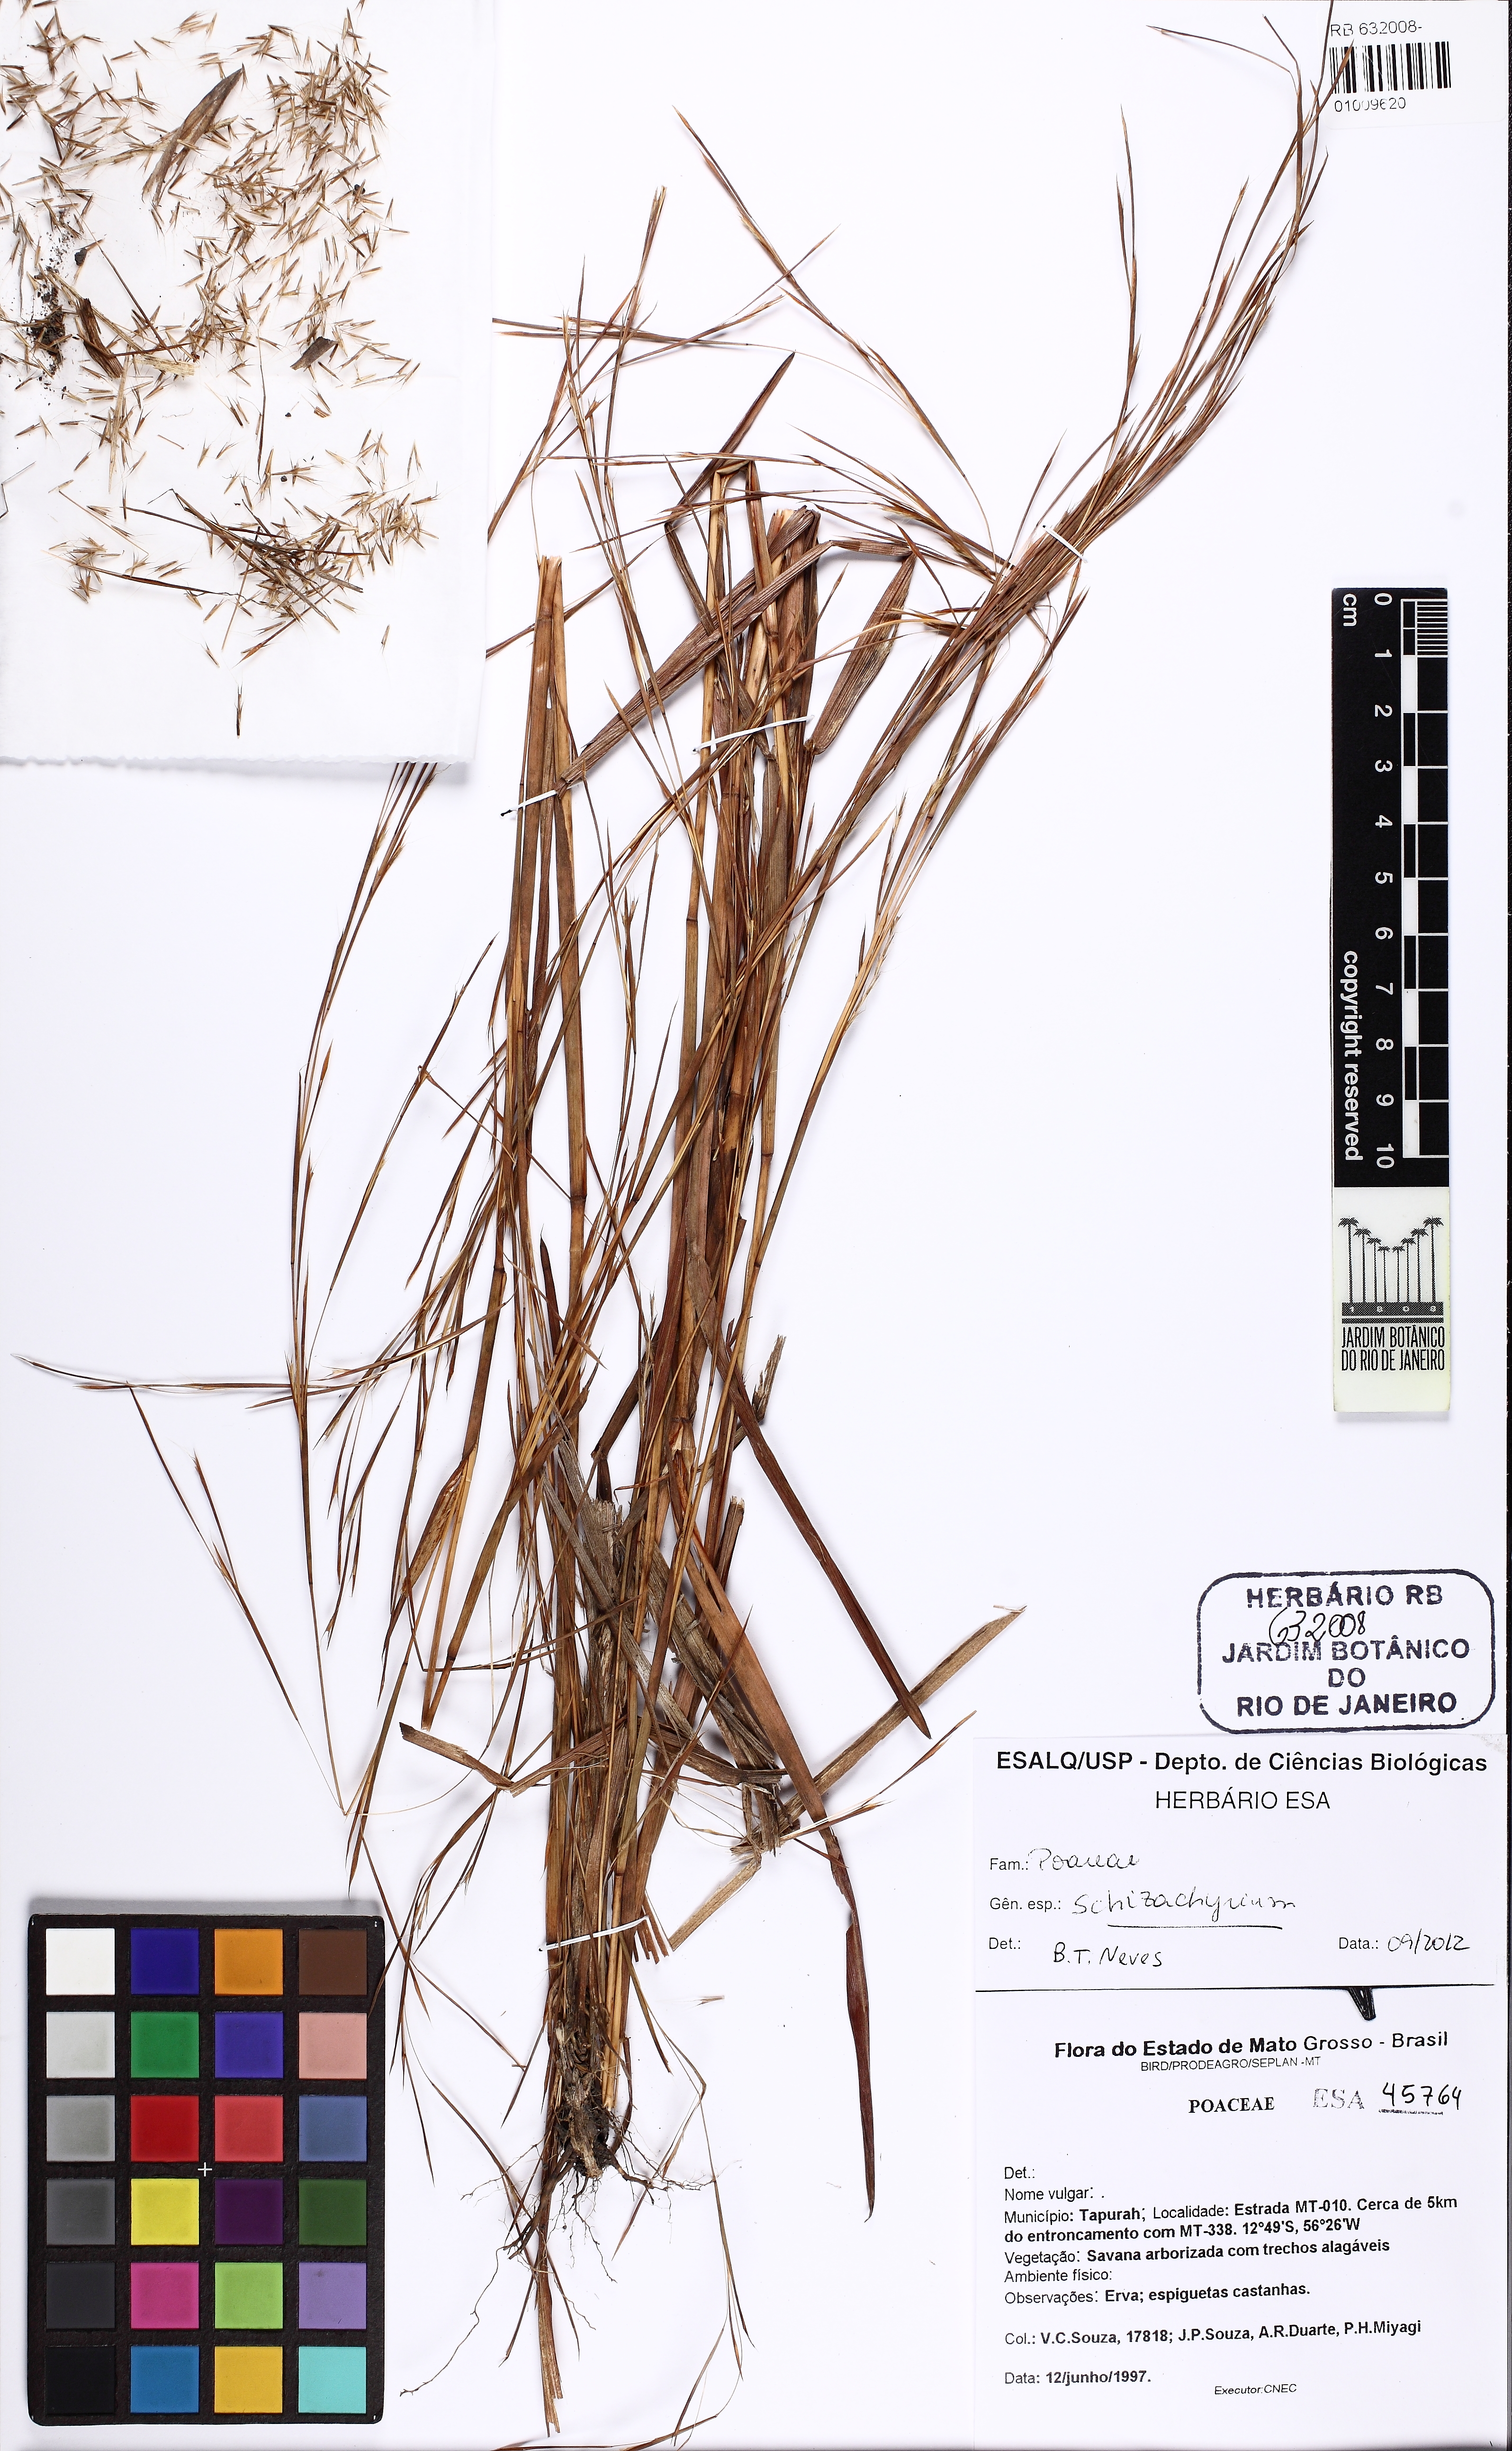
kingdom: Plantae
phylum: Tracheophyta
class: Liliopsida
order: Poales
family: Poaceae
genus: Schizachyrium
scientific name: Schizachyrium
